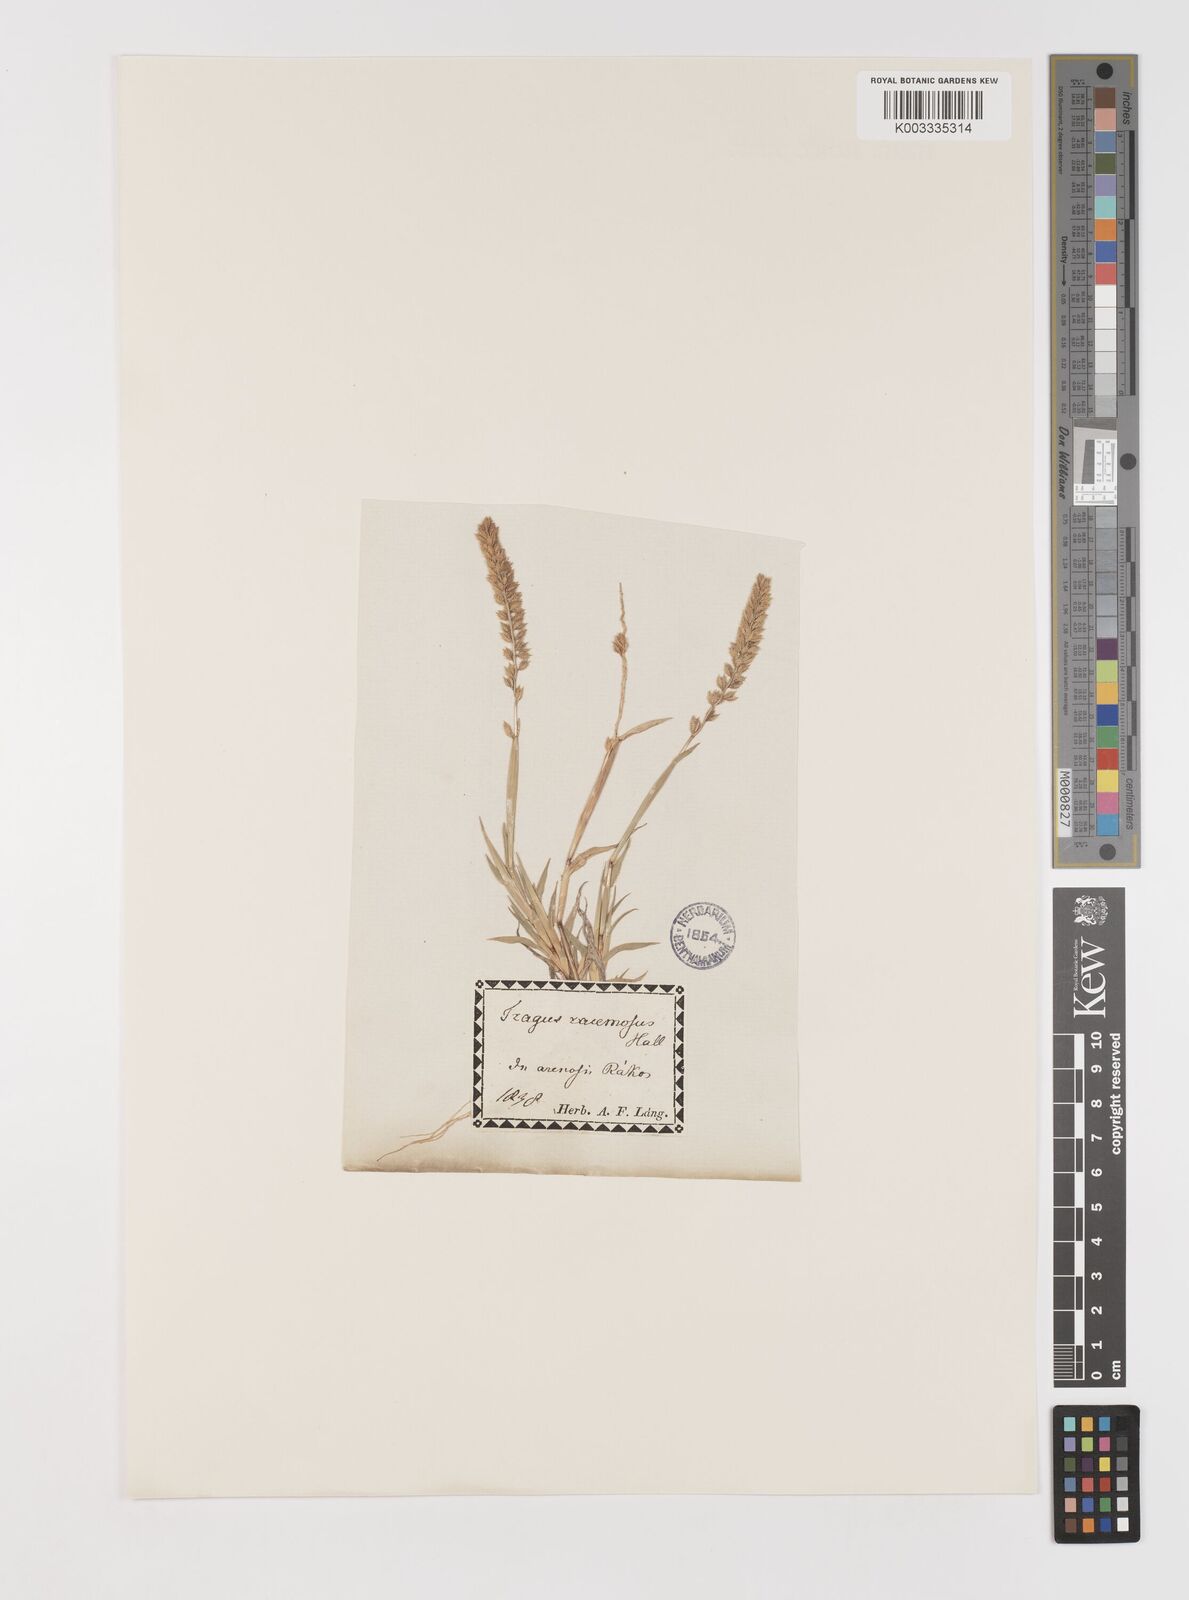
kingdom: Plantae
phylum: Tracheophyta
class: Liliopsida
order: Poales
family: Poaceae
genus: Tragus
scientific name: Tragus racemosus
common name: European bur-grass
